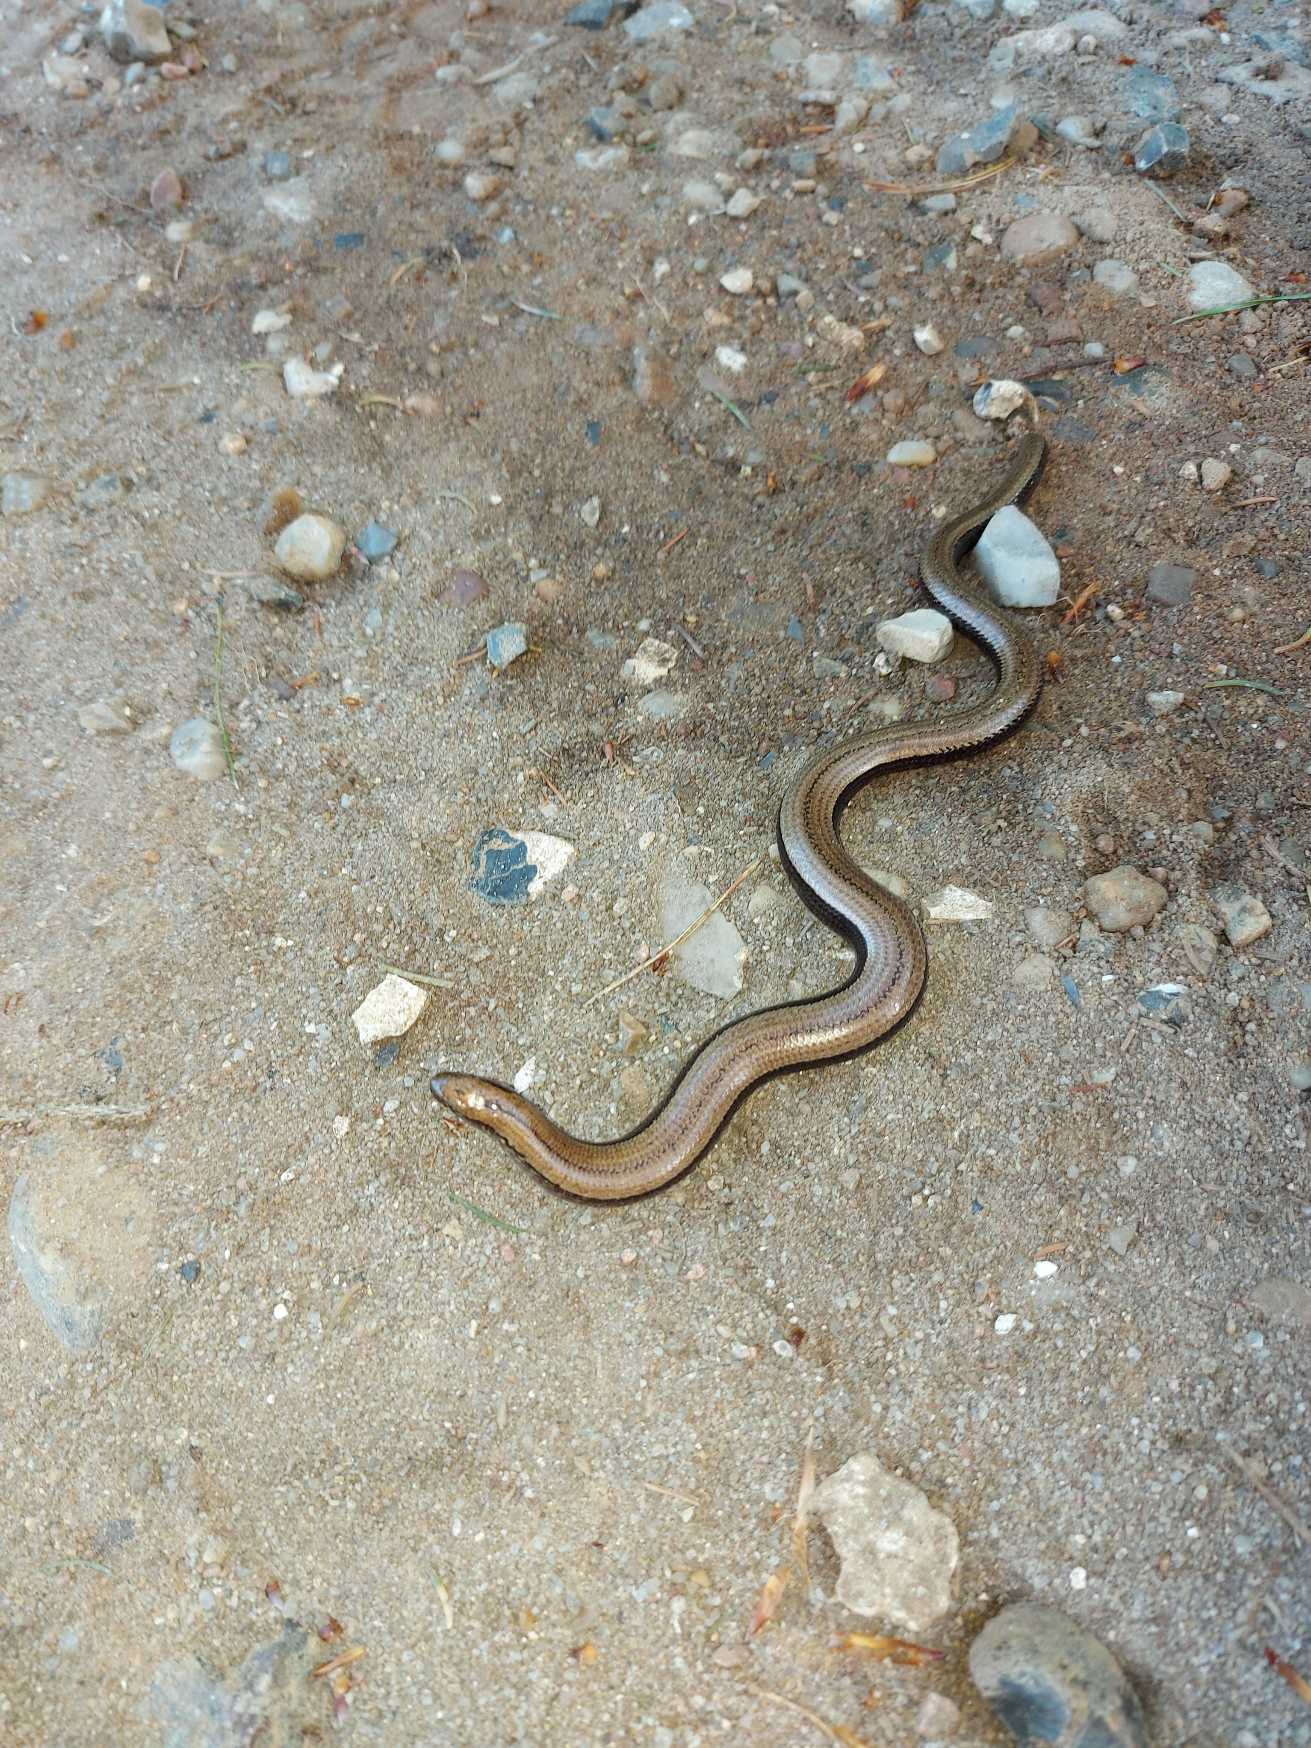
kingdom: Animalia
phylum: Chordata
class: Squamata
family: Anguidae
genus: Anguis
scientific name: Anguis fragilis
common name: Stålorm
